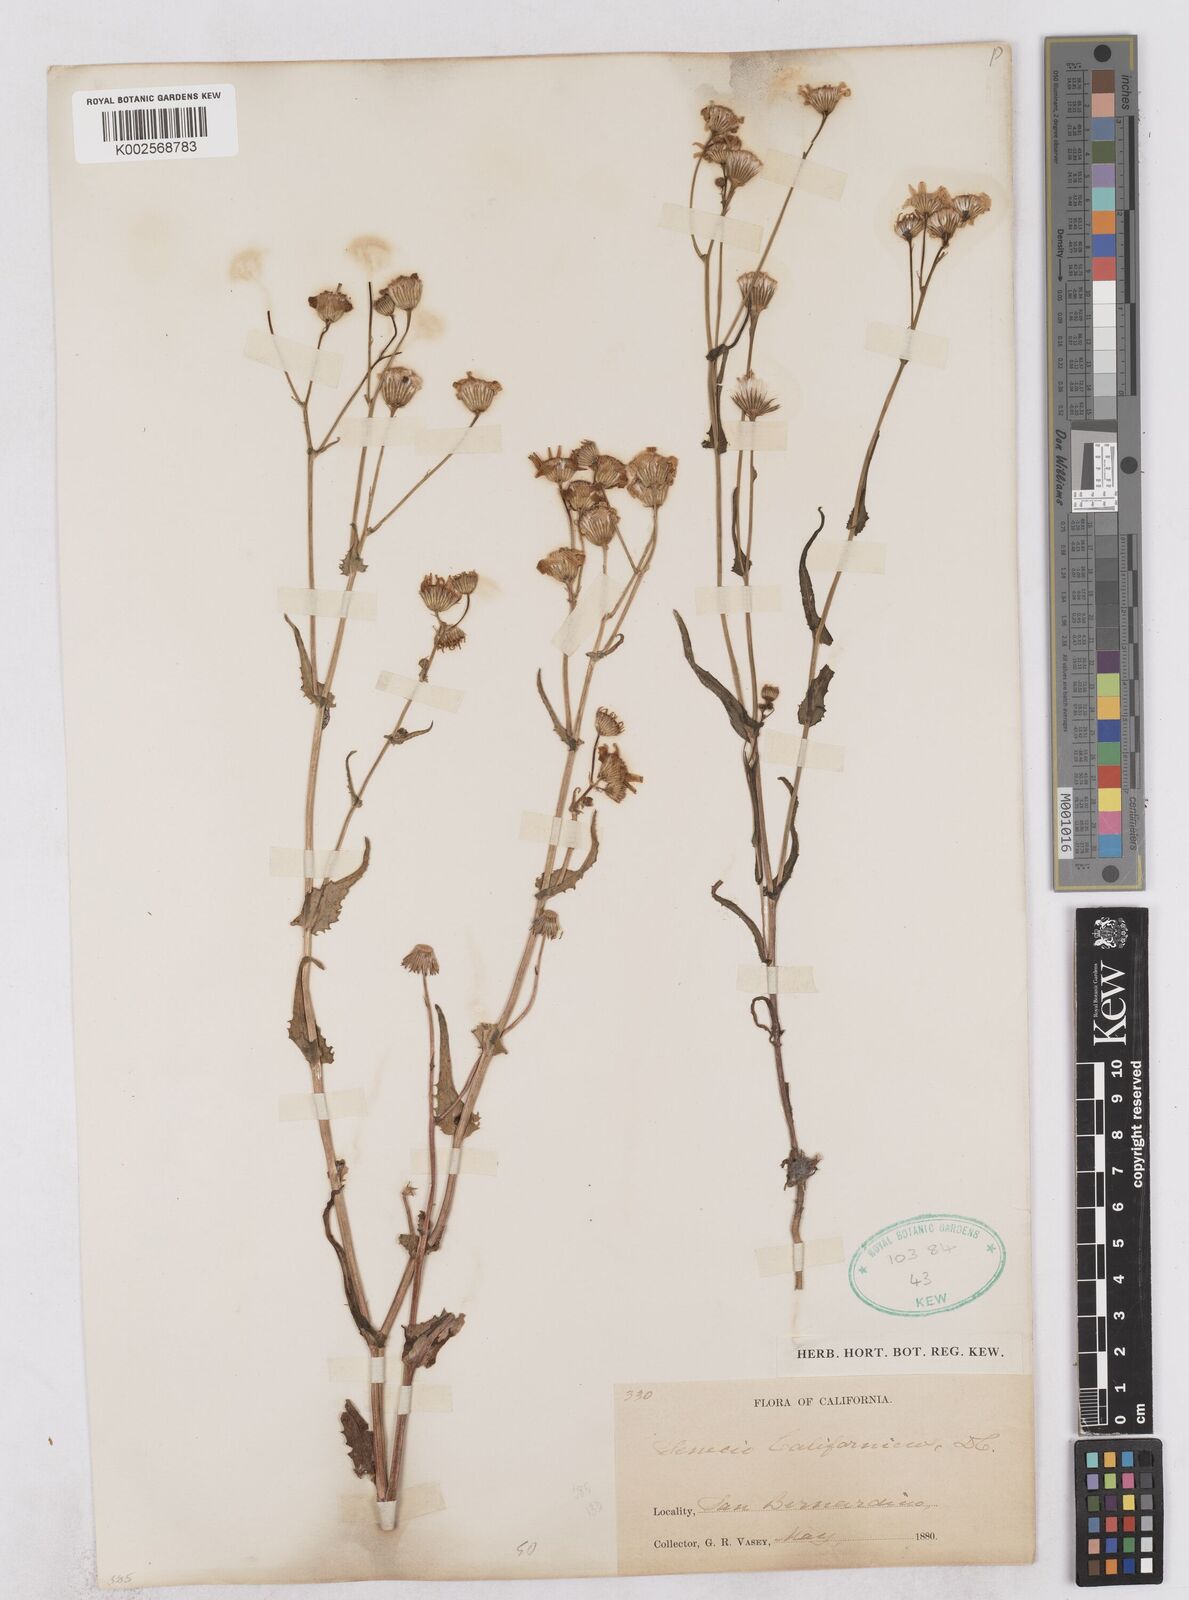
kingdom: Plantae
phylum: Tracheophyta
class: Magnoliopsida
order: Asterales
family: Asteraceae
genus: Senecio
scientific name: Senecio californicus
